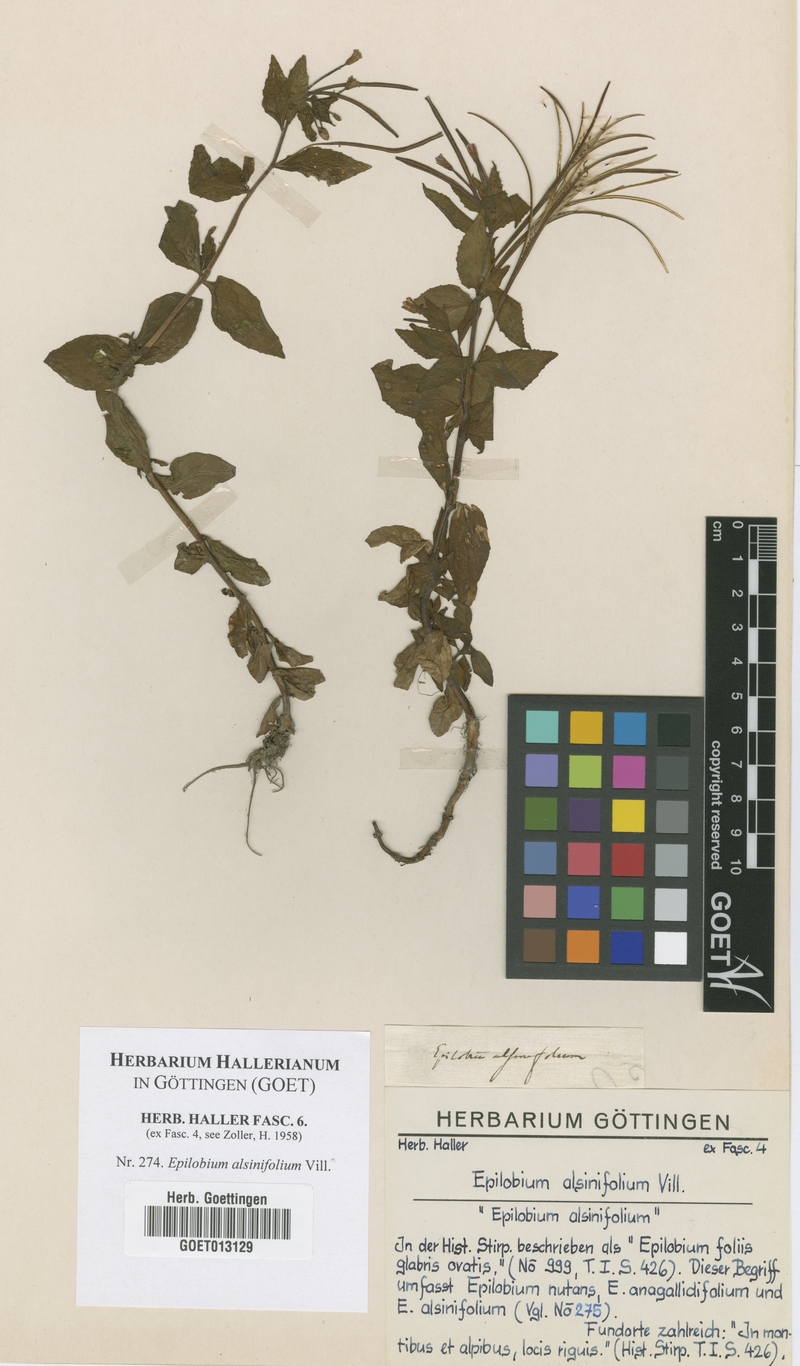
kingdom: Plantae
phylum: Tracheophyta
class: Magnoliopsida
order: Myrtales
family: Onagraceae
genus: Epilobium
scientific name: Epilobium alsinifolium
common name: Chickweed willowherb
